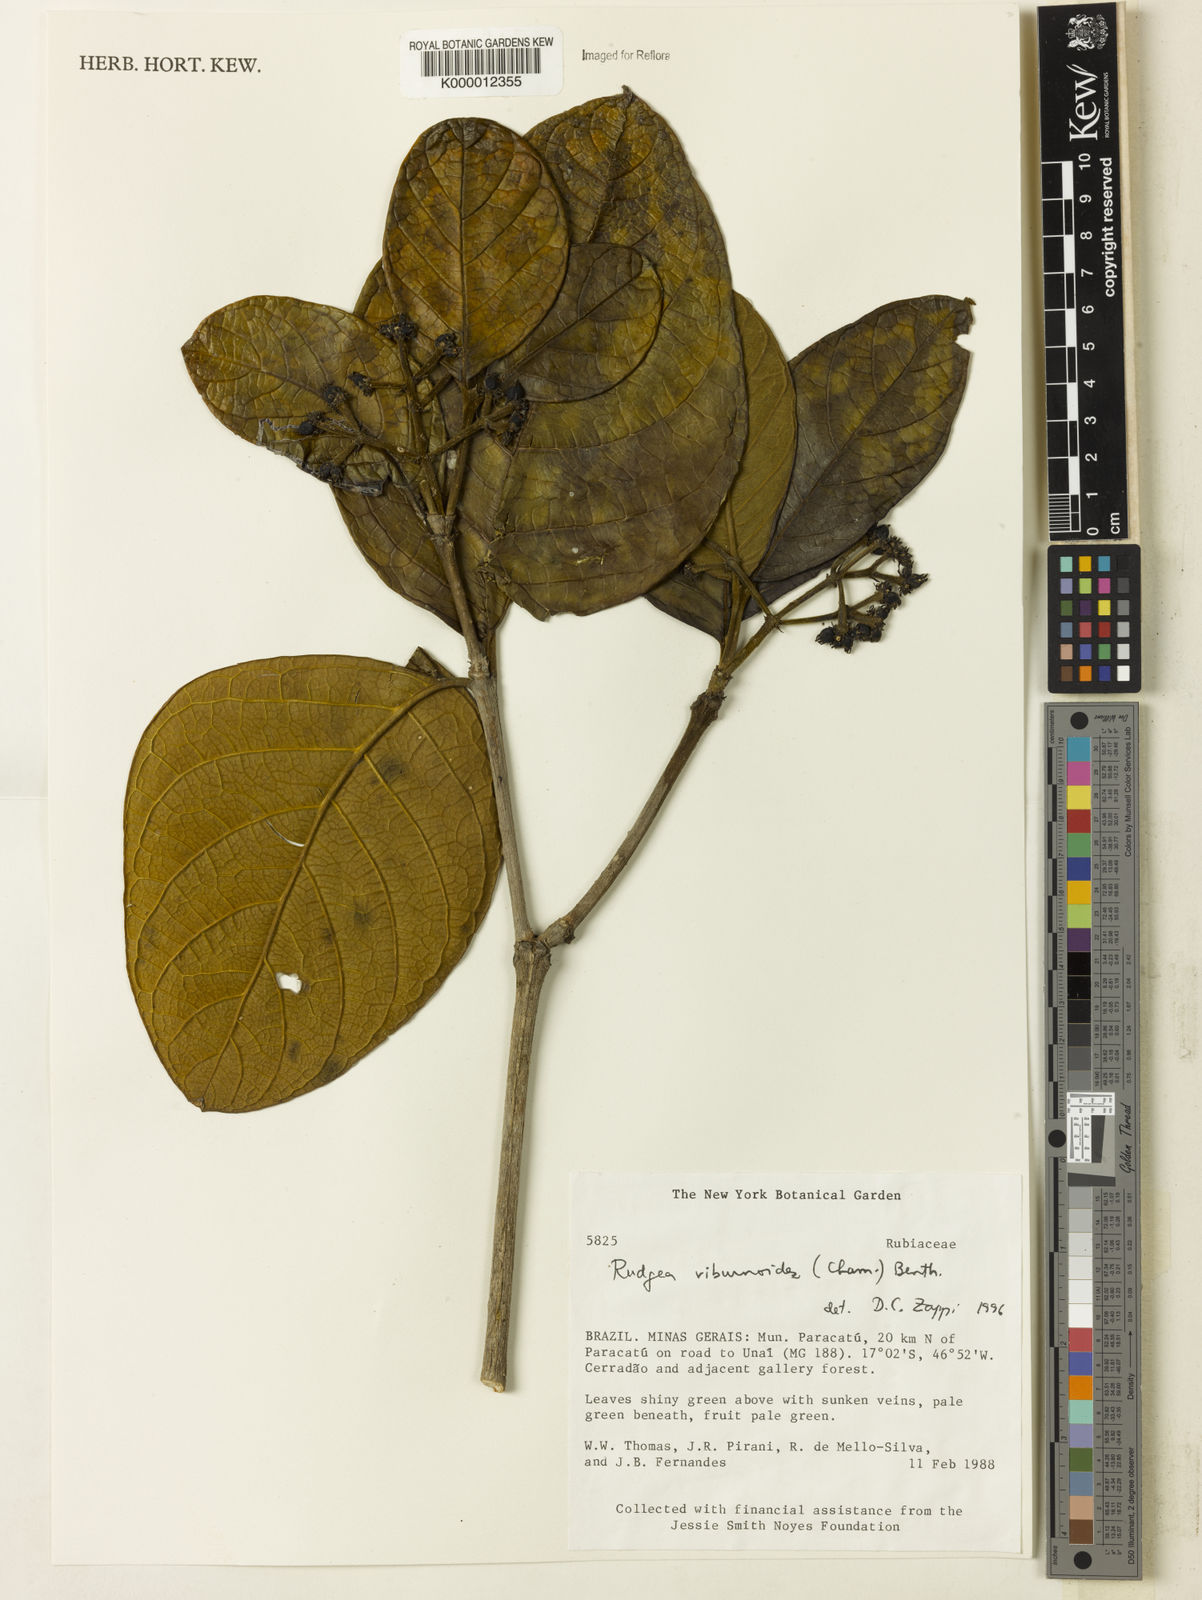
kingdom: Plantae
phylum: Tracheophyta
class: Magnoliopsida
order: Gentianales
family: Rubiaceae
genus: Rudgea
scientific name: Rudgea viburnoides
